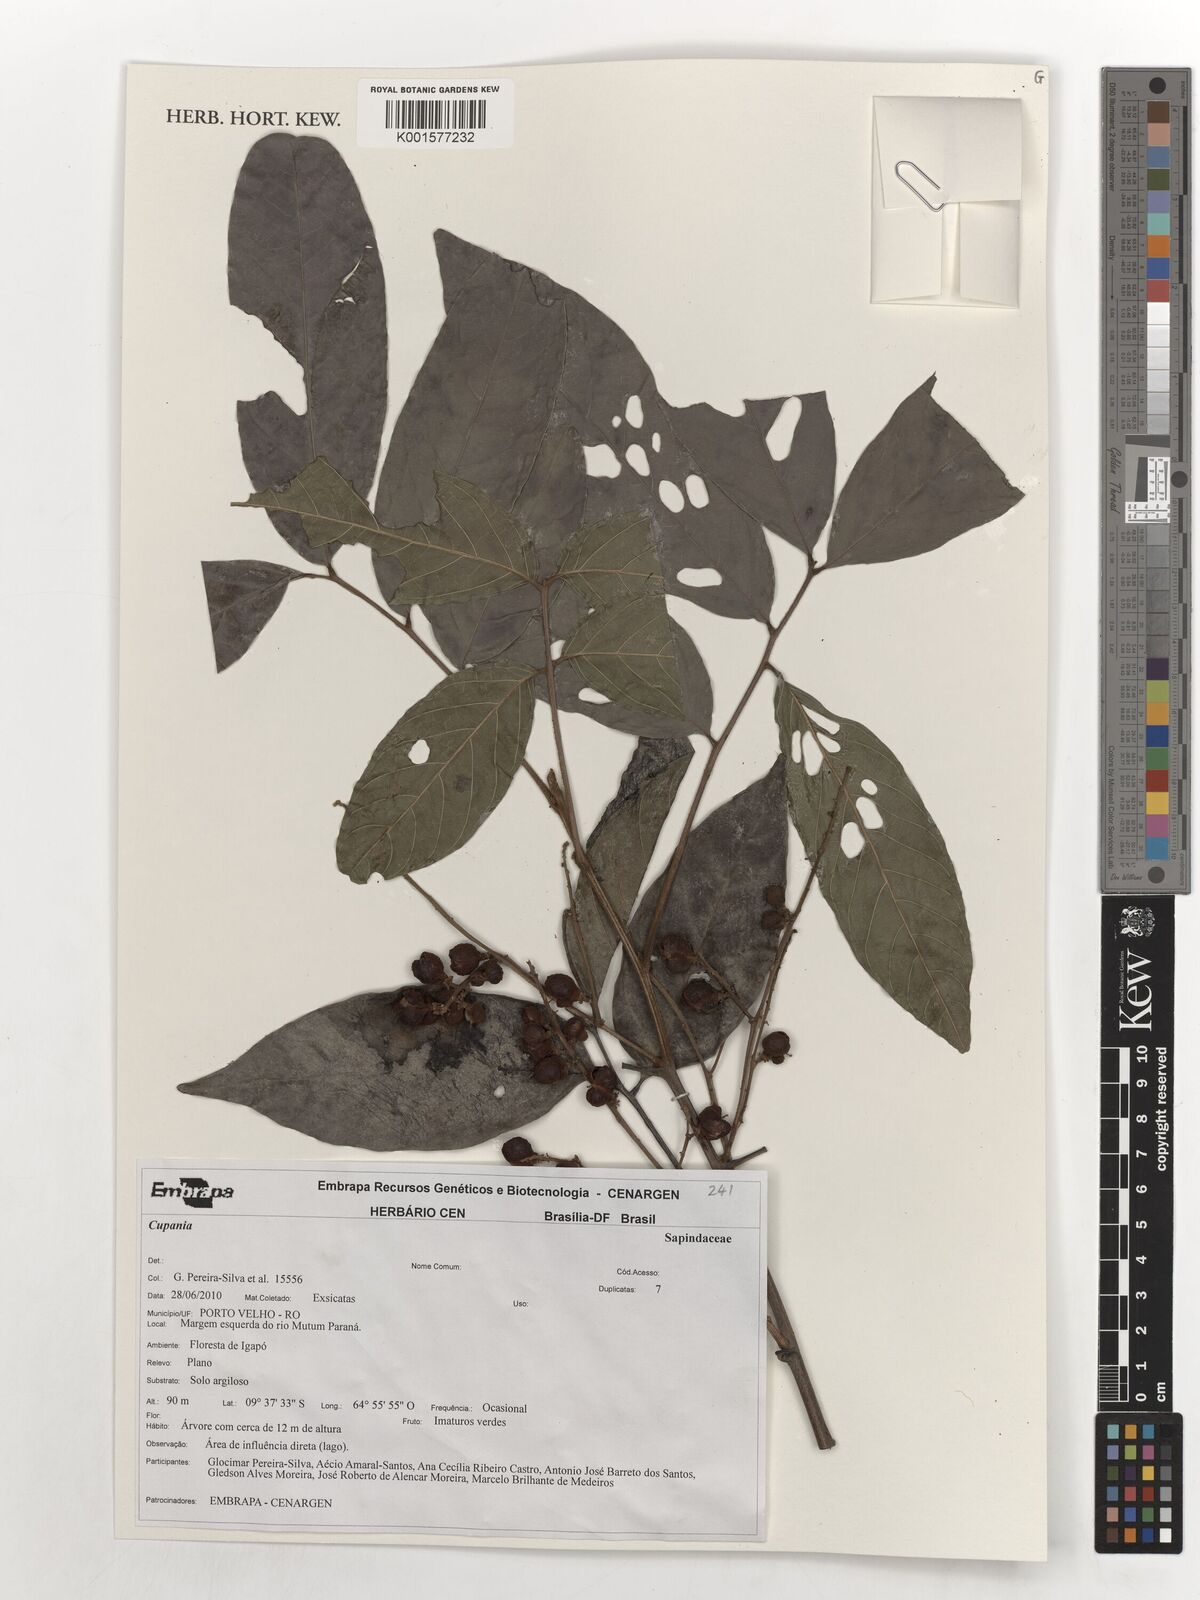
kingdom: Plantae
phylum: Tracheophyta
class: Magnoliopsida
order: Sapindales
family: Sapindaceae
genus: Cupania
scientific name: Cupania
